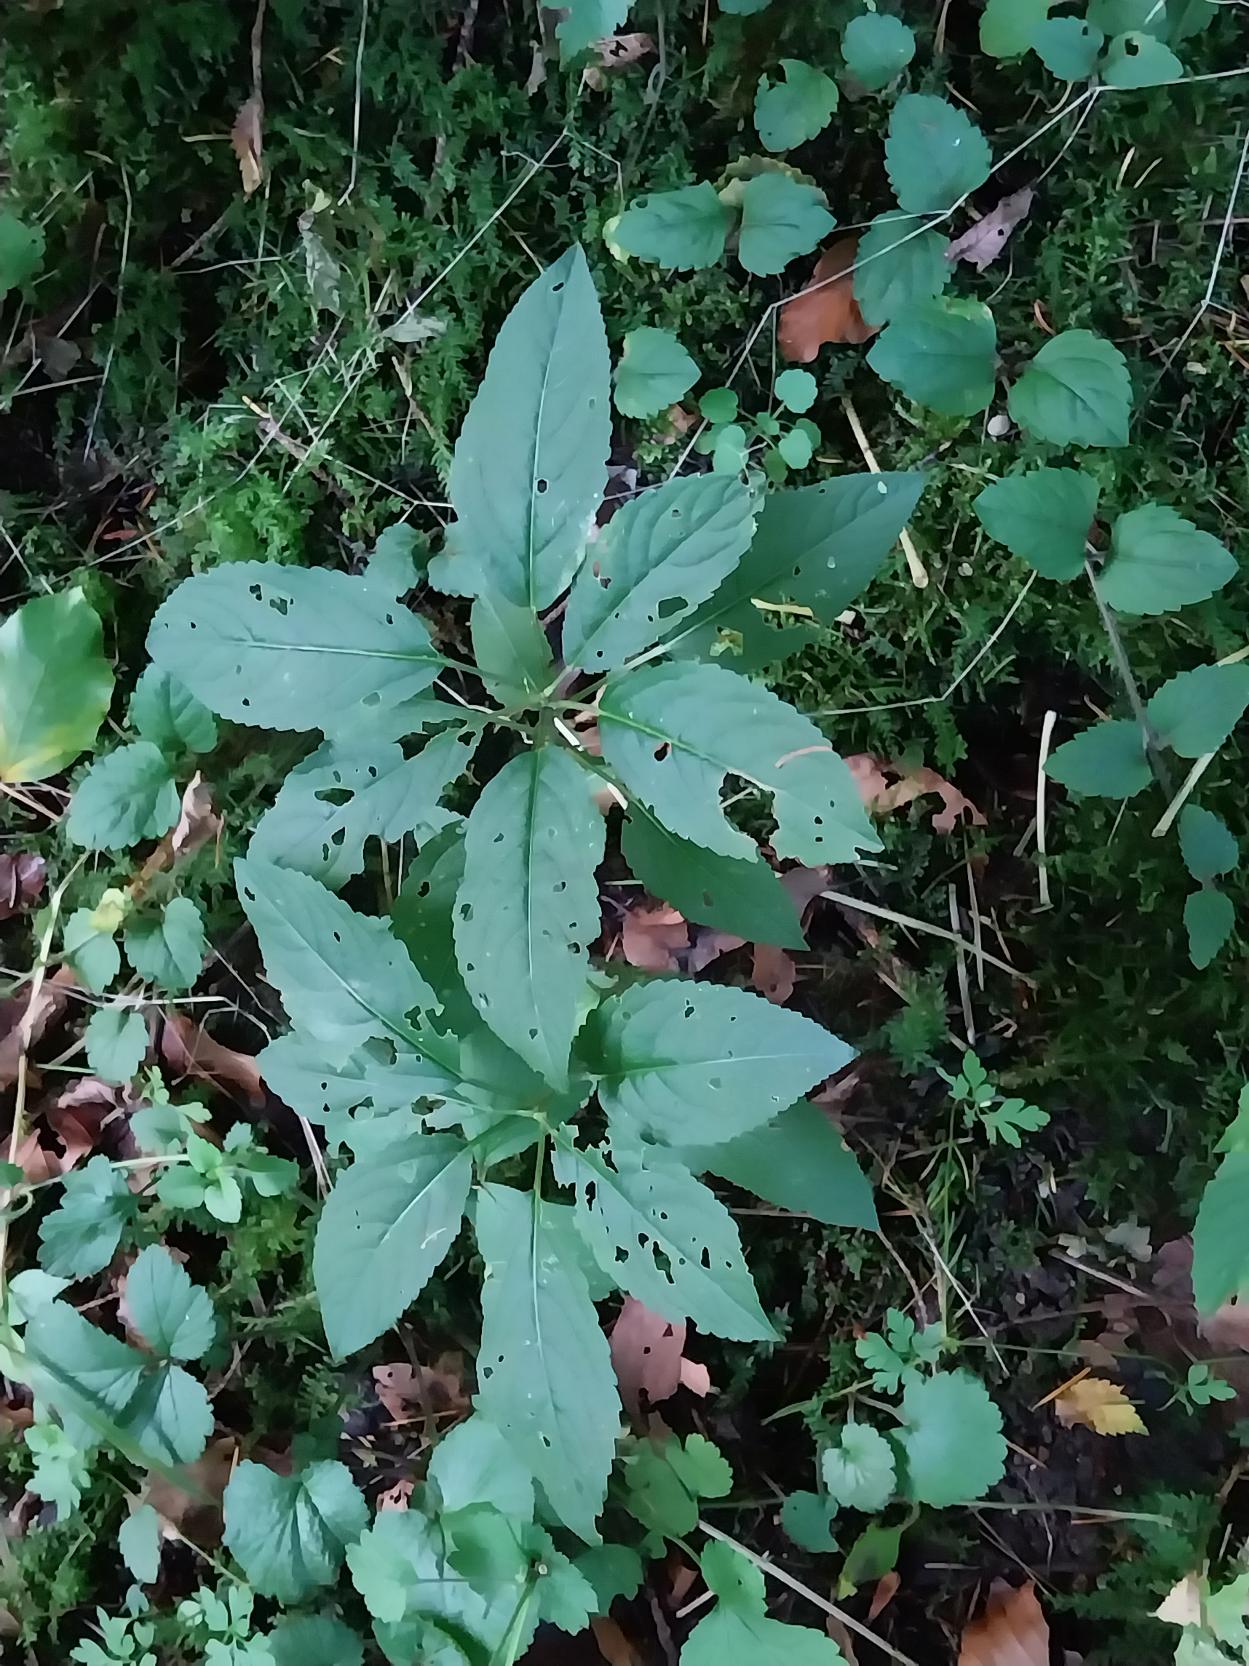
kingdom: Plantae
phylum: Tracheophyta
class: Magnoliopsida
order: Malpighiales
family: Euphorbiaceae
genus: Mercurialis
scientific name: Mercurialis perennis
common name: Almindelig bingelurt
